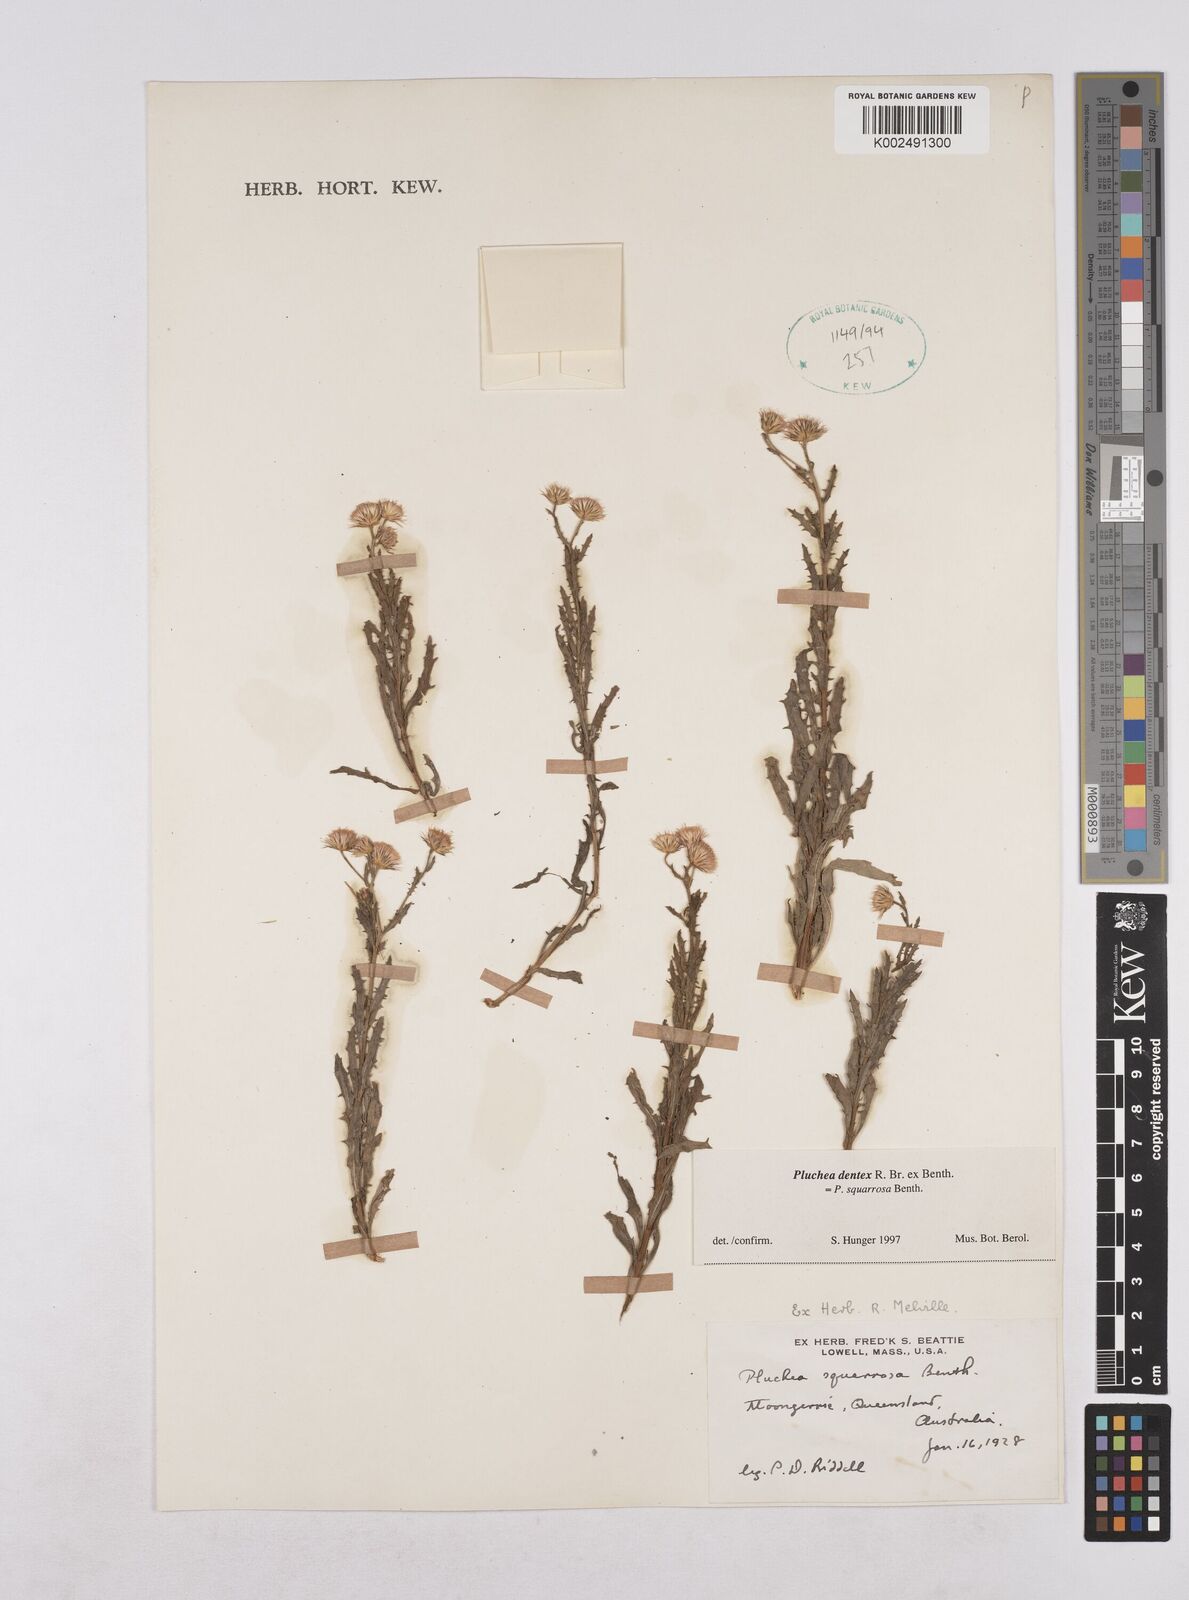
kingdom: Plantae
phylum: Tracheophyta
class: Magnoliopsida
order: Asterales
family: Asteraceae
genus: Pluchea
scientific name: Pluchea dentex
